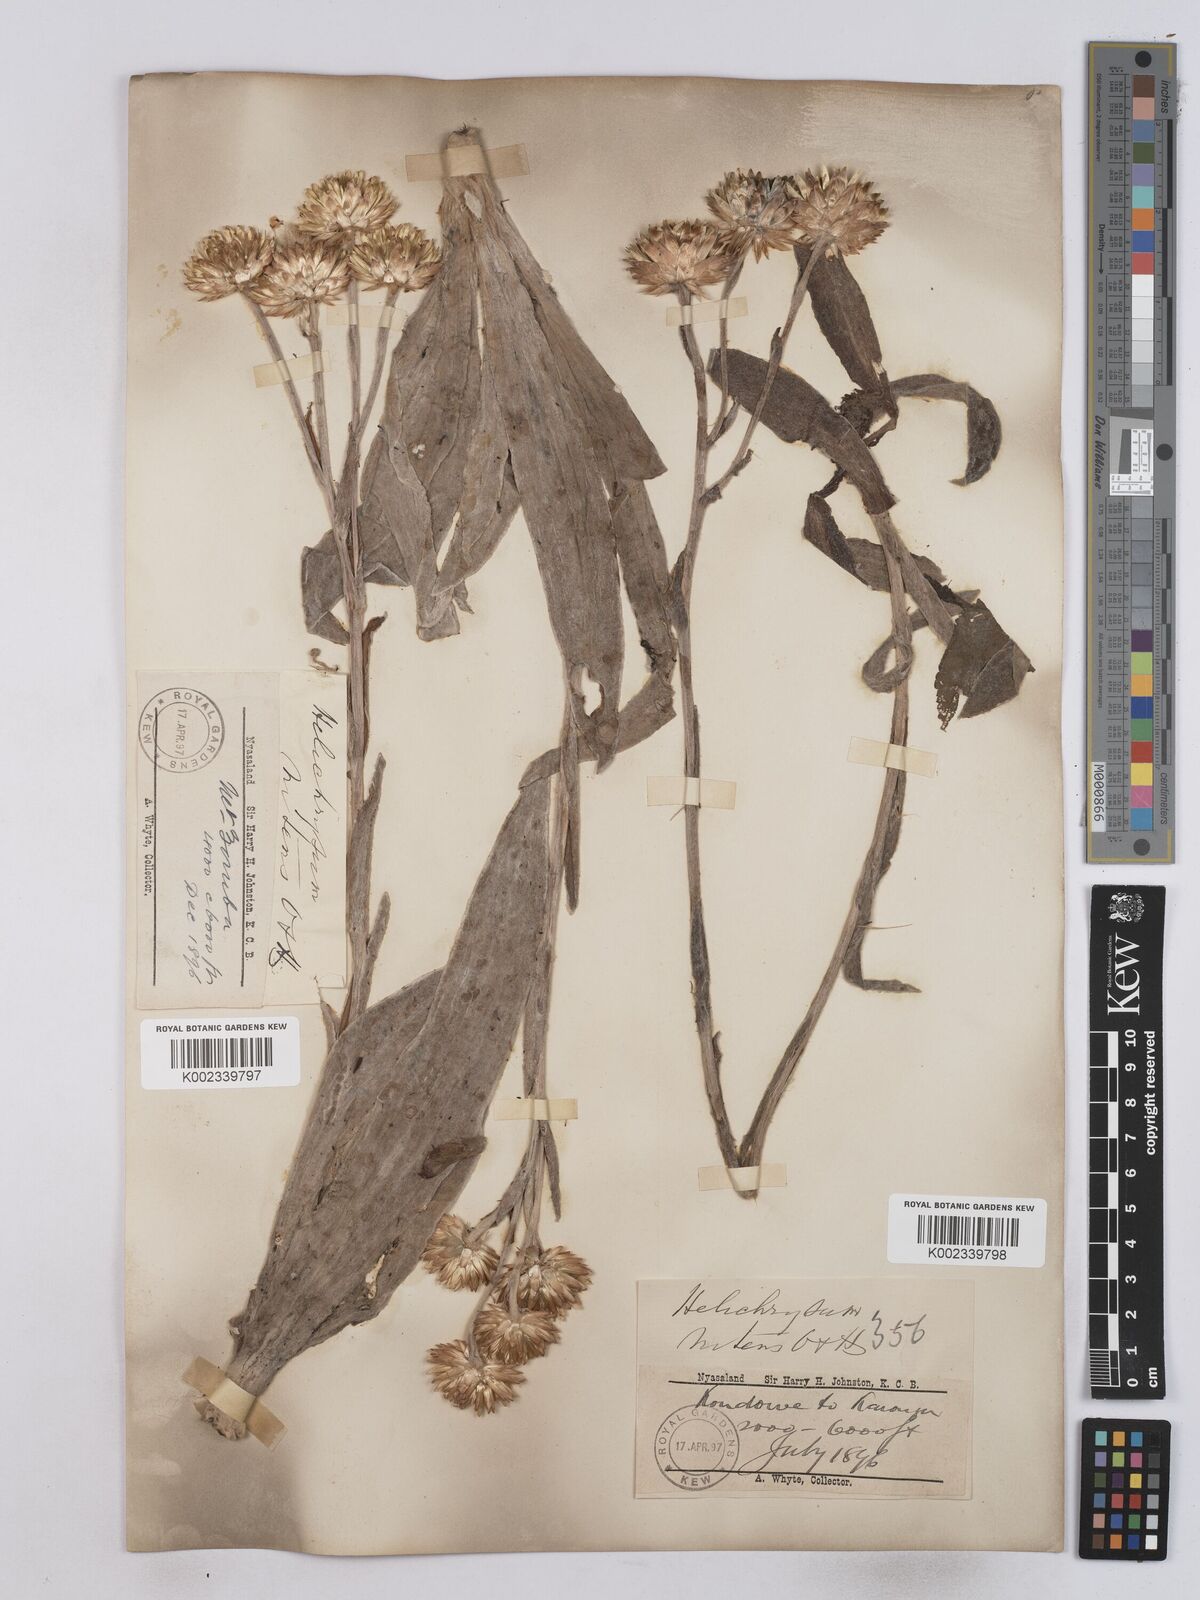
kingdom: Plantae
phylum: Tracheophyta
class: Magnoliopsida
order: Asterales
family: Asteraceae
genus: Helichrysum
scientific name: Helichrysum nitens
